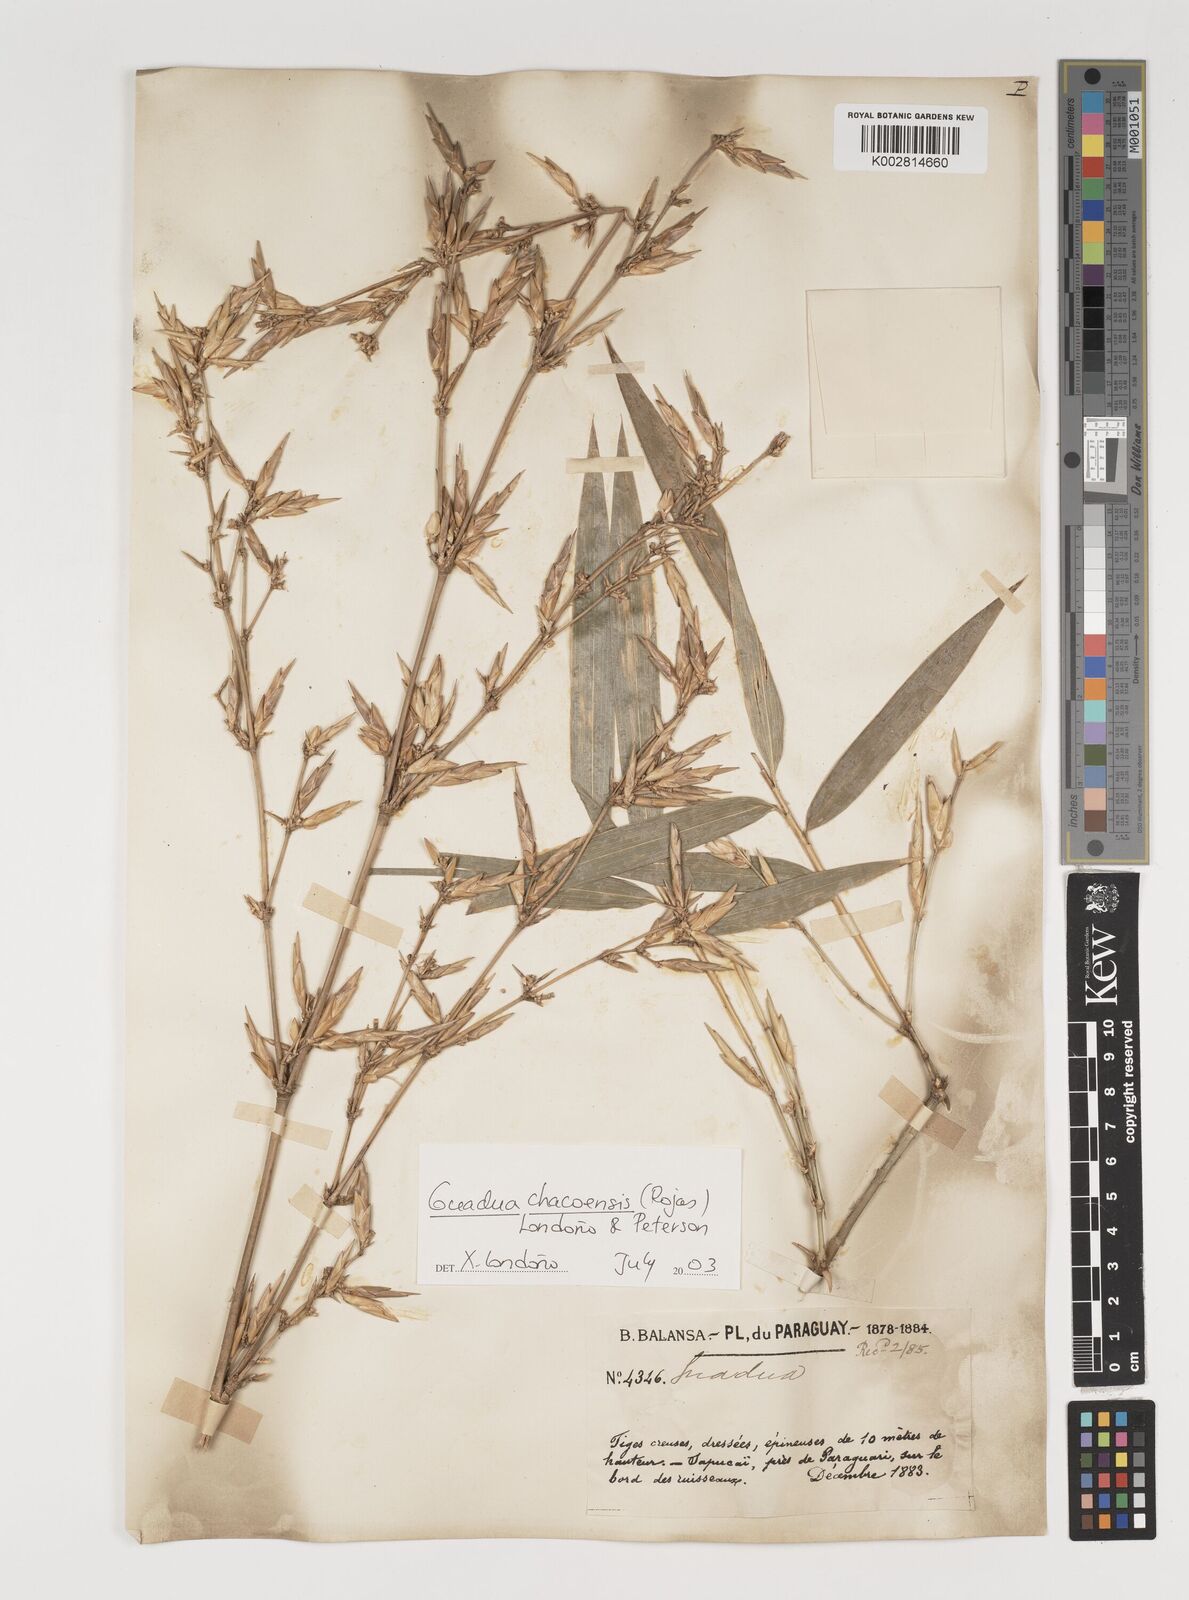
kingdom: Plantae
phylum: Tracheophyta
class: Liliopsida
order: Poales
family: Poaceae
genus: Guadua
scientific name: Guadua chacoensis
